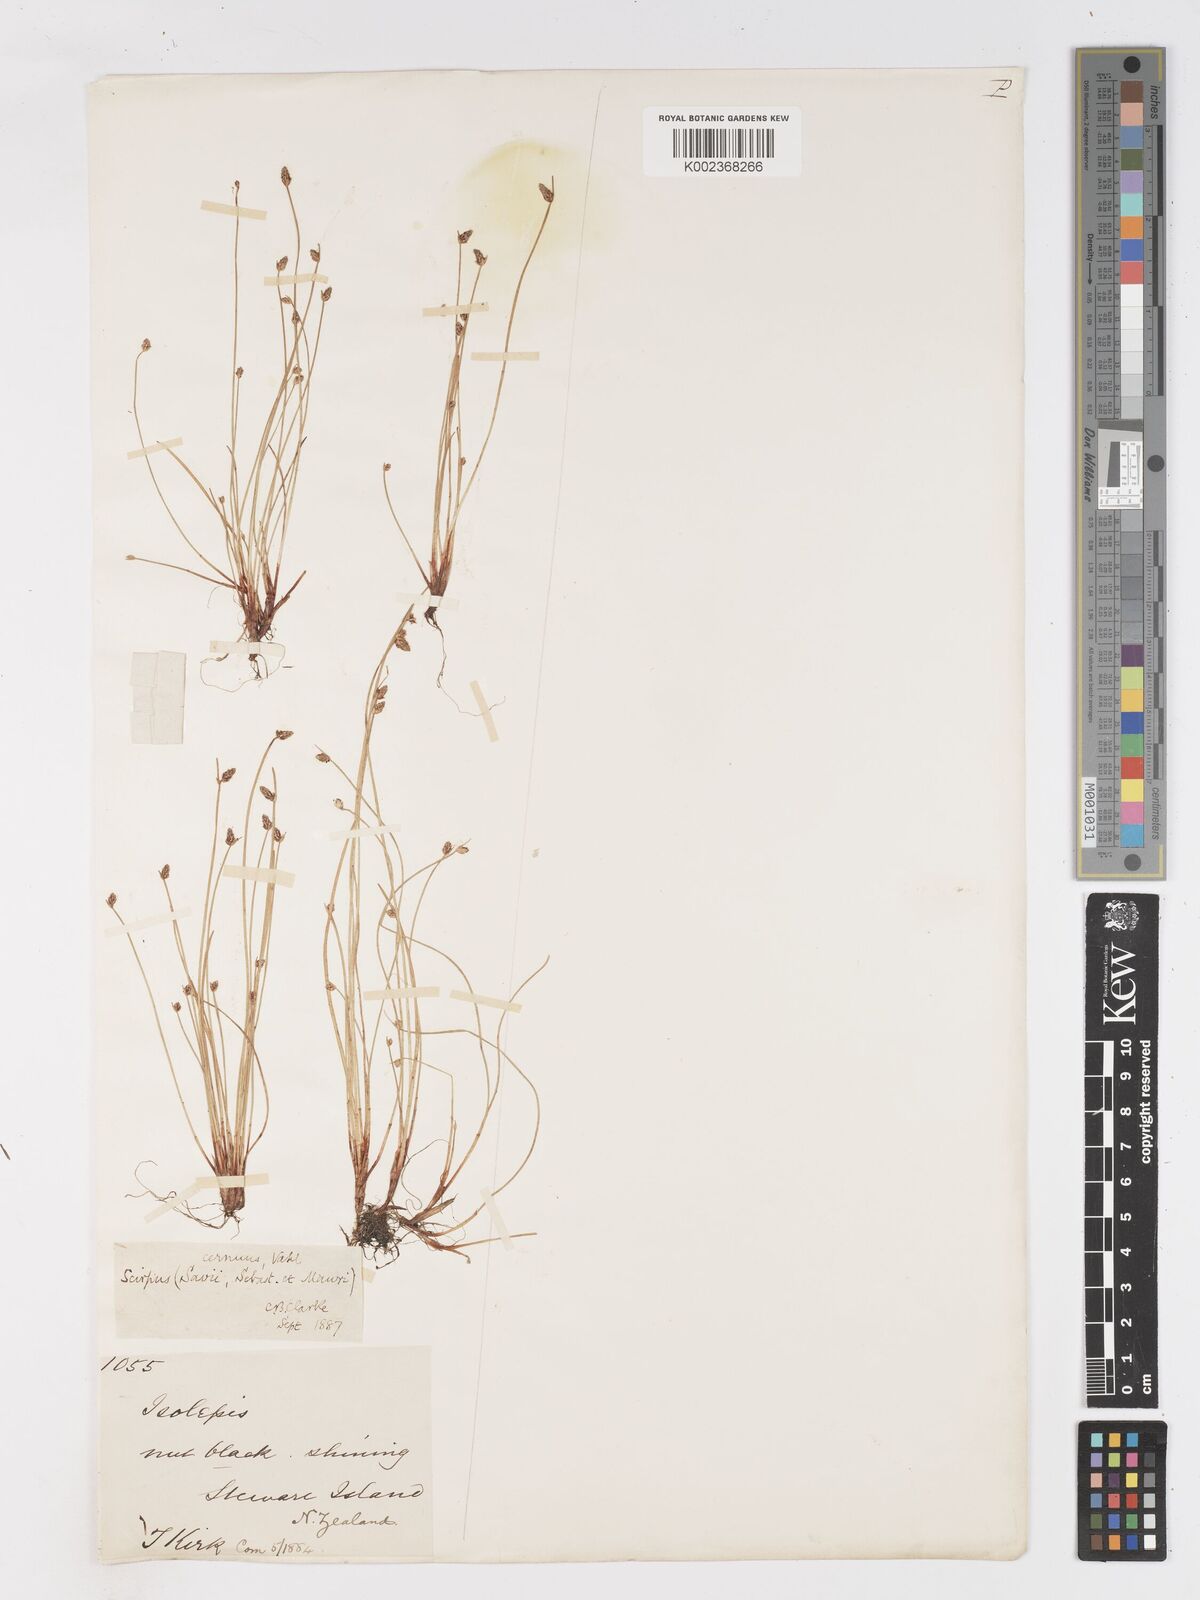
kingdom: Plantae
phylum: Tracheophyta
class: Liliopsida
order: Poales
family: Cyperaceae
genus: Isolepis
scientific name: Isolepis cernua
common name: Slender club-rush
